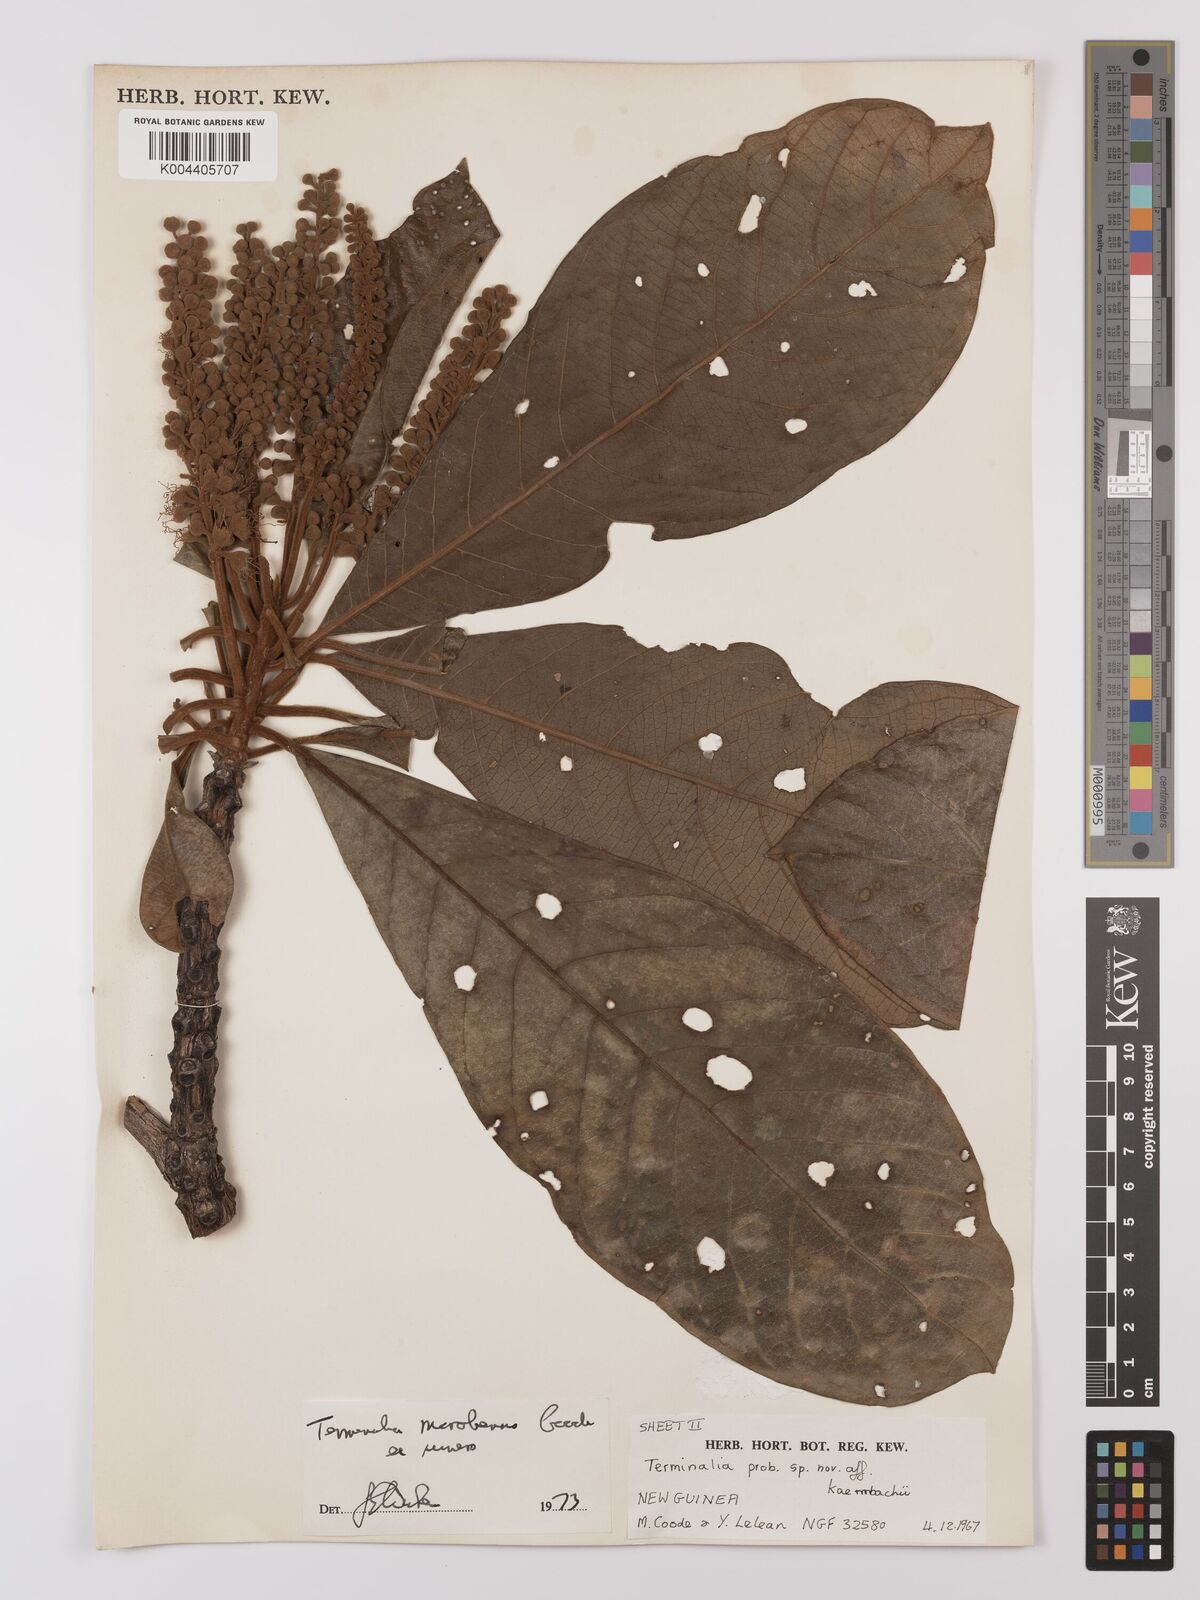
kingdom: Plantae
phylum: Tracheophyta
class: Magnoliopsida
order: Myrtales
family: Combretaceae
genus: Terminalia
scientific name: Terminalia morobensis
